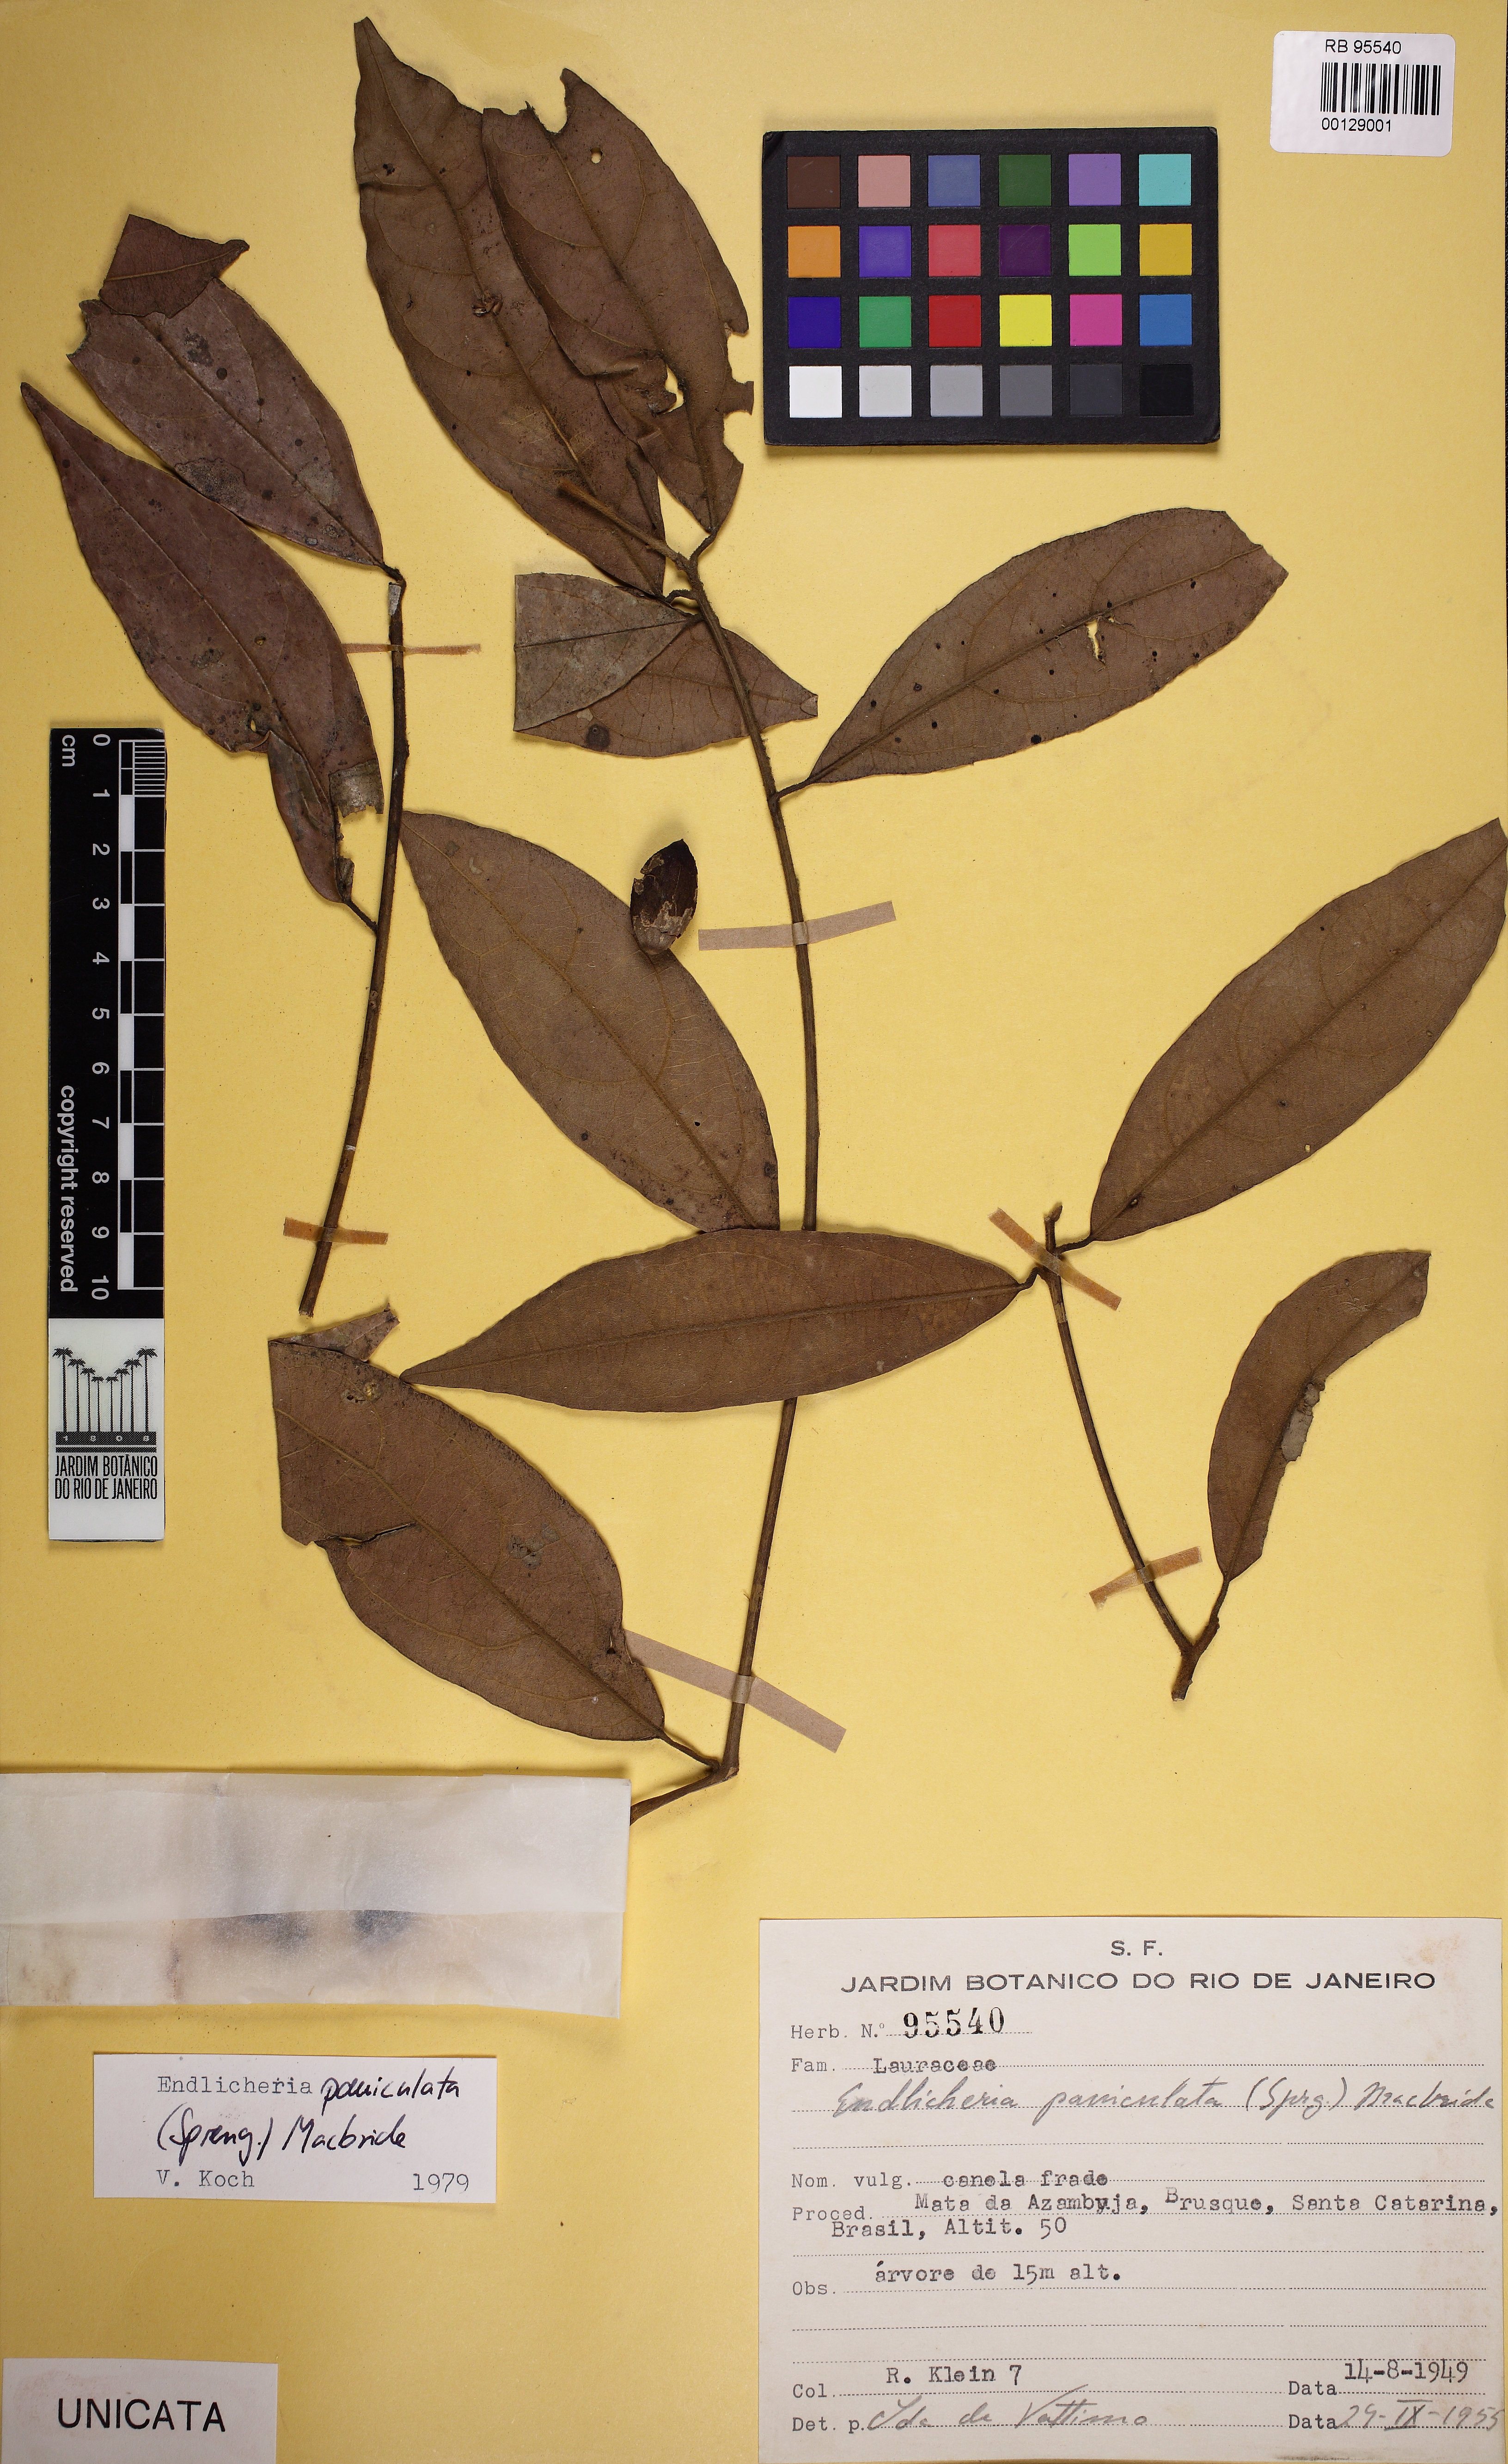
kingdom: Plantae
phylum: Tracheophyta
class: Magnoliopsida
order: Laurales
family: Lauraceae
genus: Endlicheria
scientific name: Endlicheria paniculata
